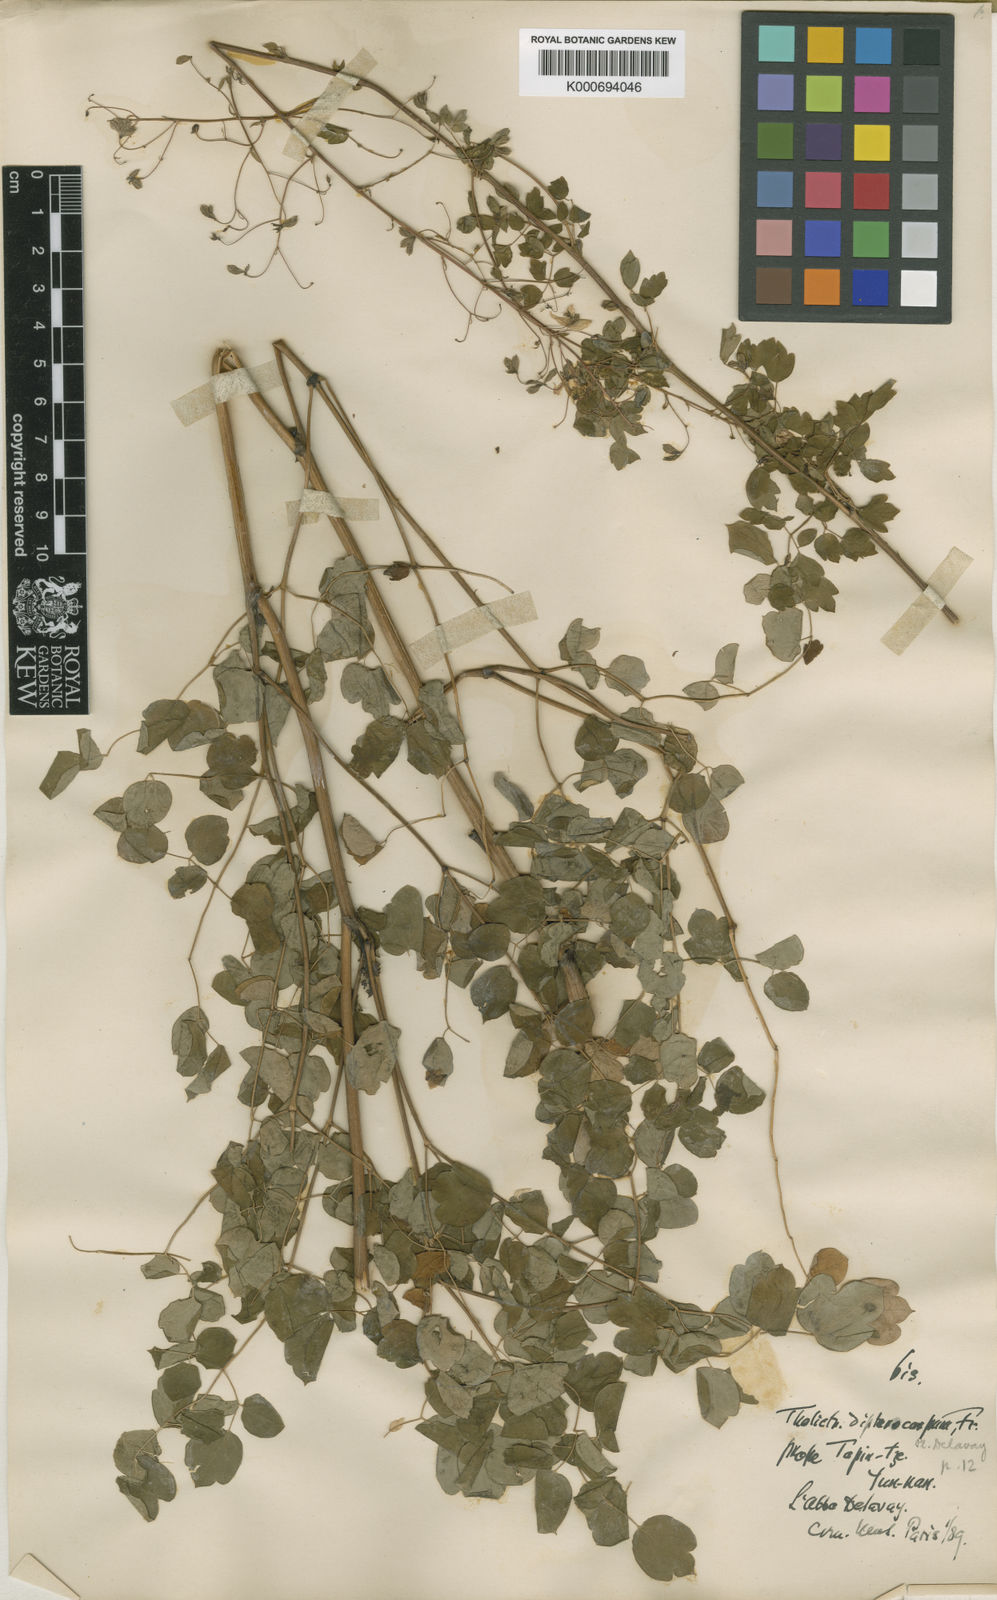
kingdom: Plantae
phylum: Tracheophyta
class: Magnoliopsida
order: Ranunculales
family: Ranunculaceae
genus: Thalictrum
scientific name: Thalictrum delavayi
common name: Chinese meadow-rue
